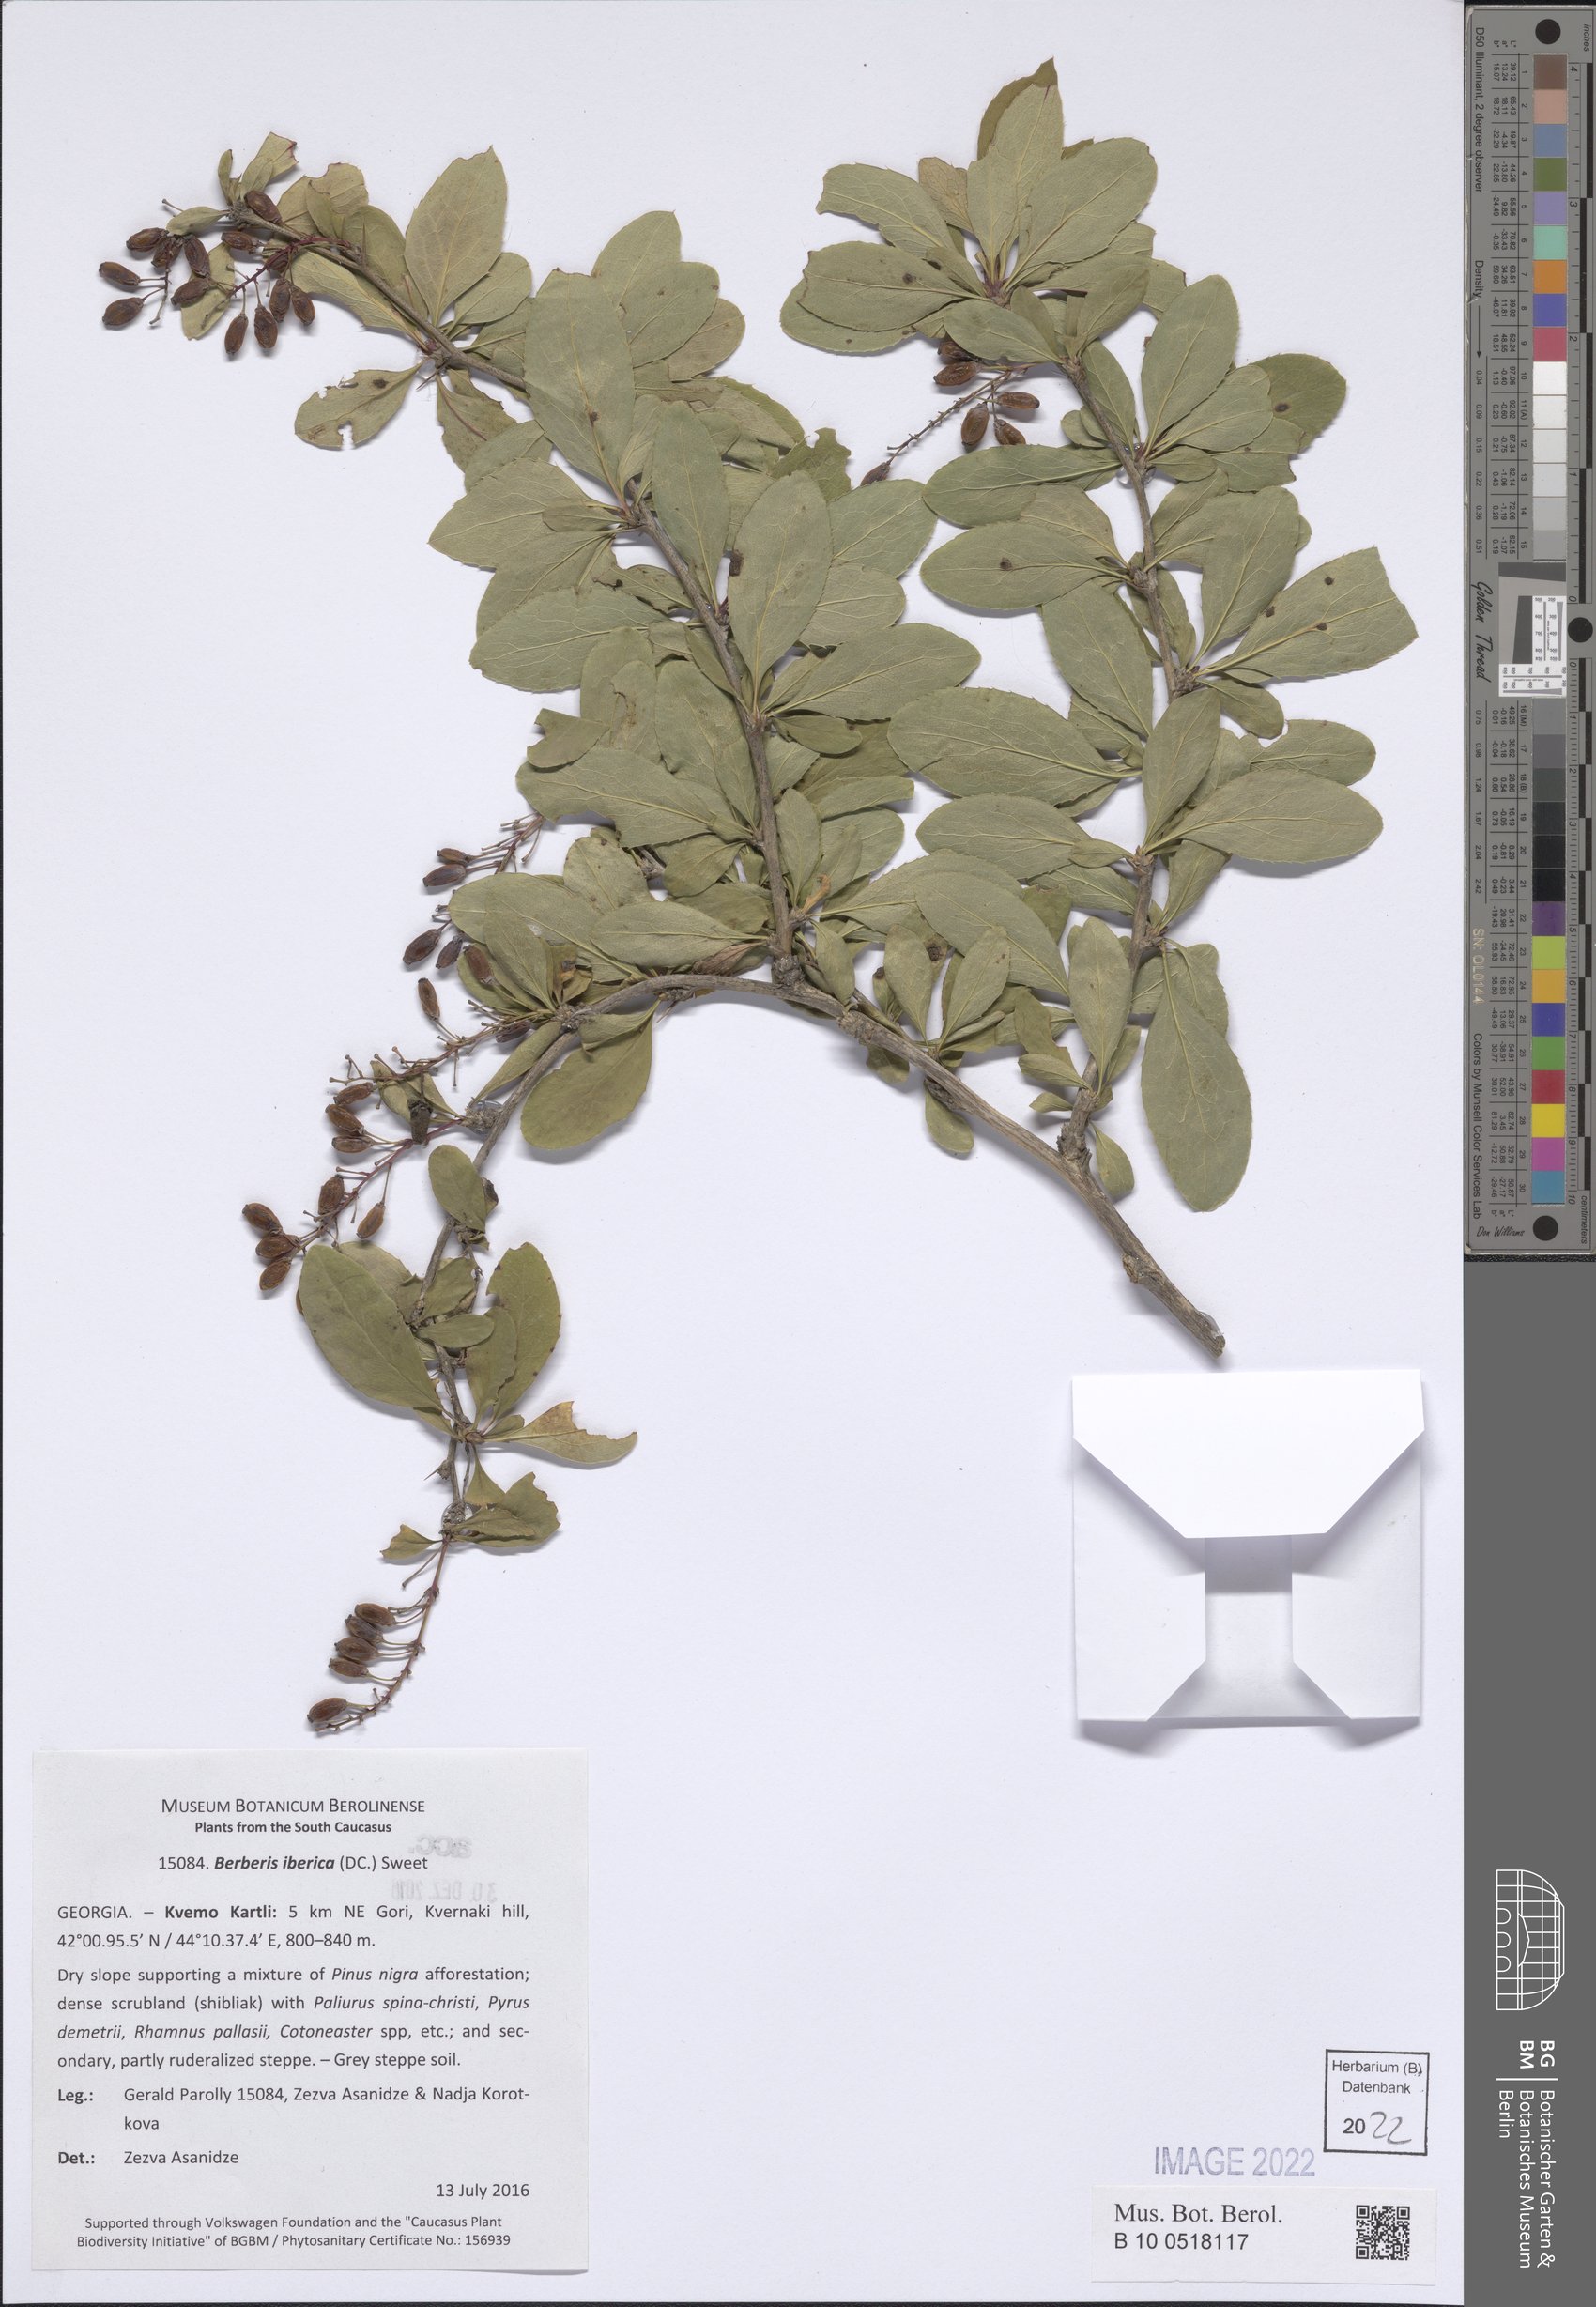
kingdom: Plantae
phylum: Tracheophyta
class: Magnoliopsida
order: Ranunculales
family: Berberidaceae
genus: Berberis
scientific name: Berberis iberica
